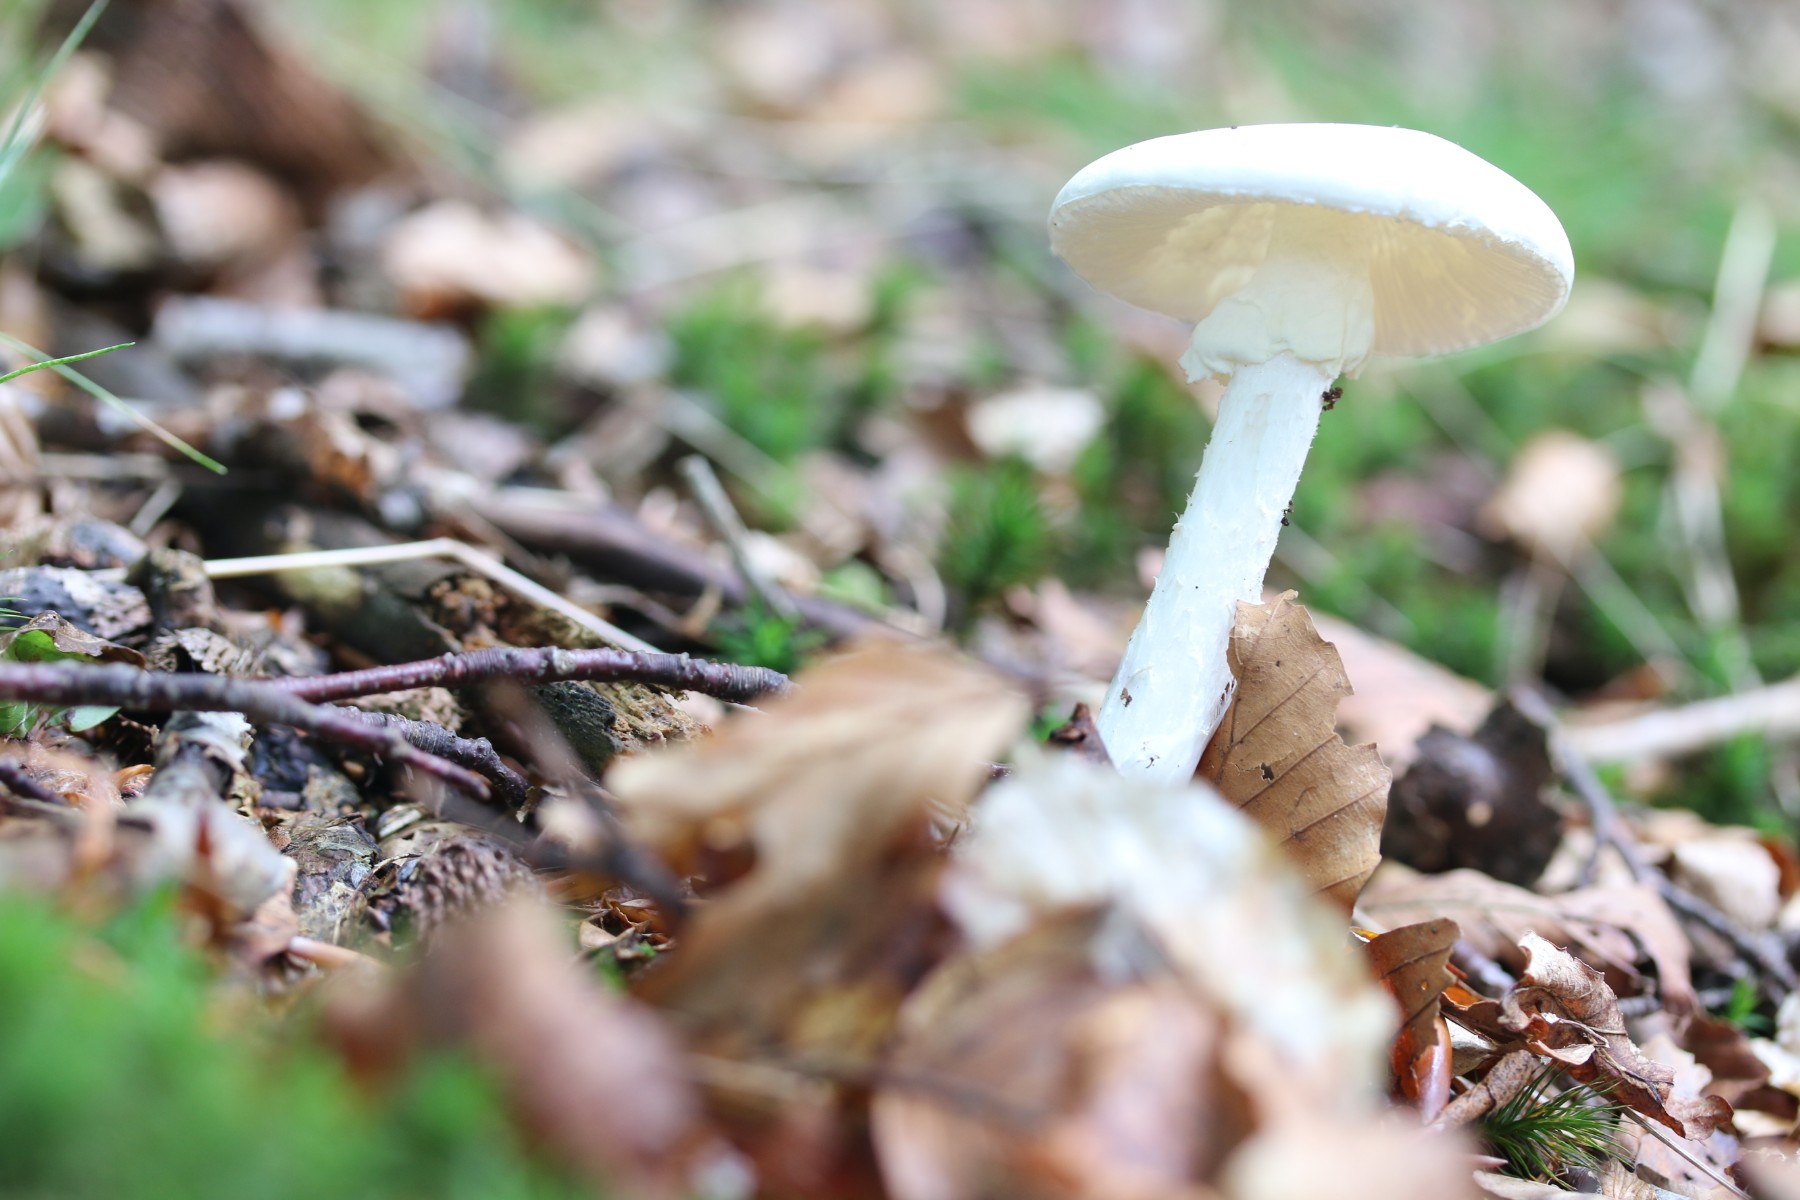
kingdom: Fungi
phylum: Basidiomycota
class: Agaricomycetes
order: Agaricales
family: Amanitaceae
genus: Amanita
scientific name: Amanita virosa
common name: snehvid fluesvamp
